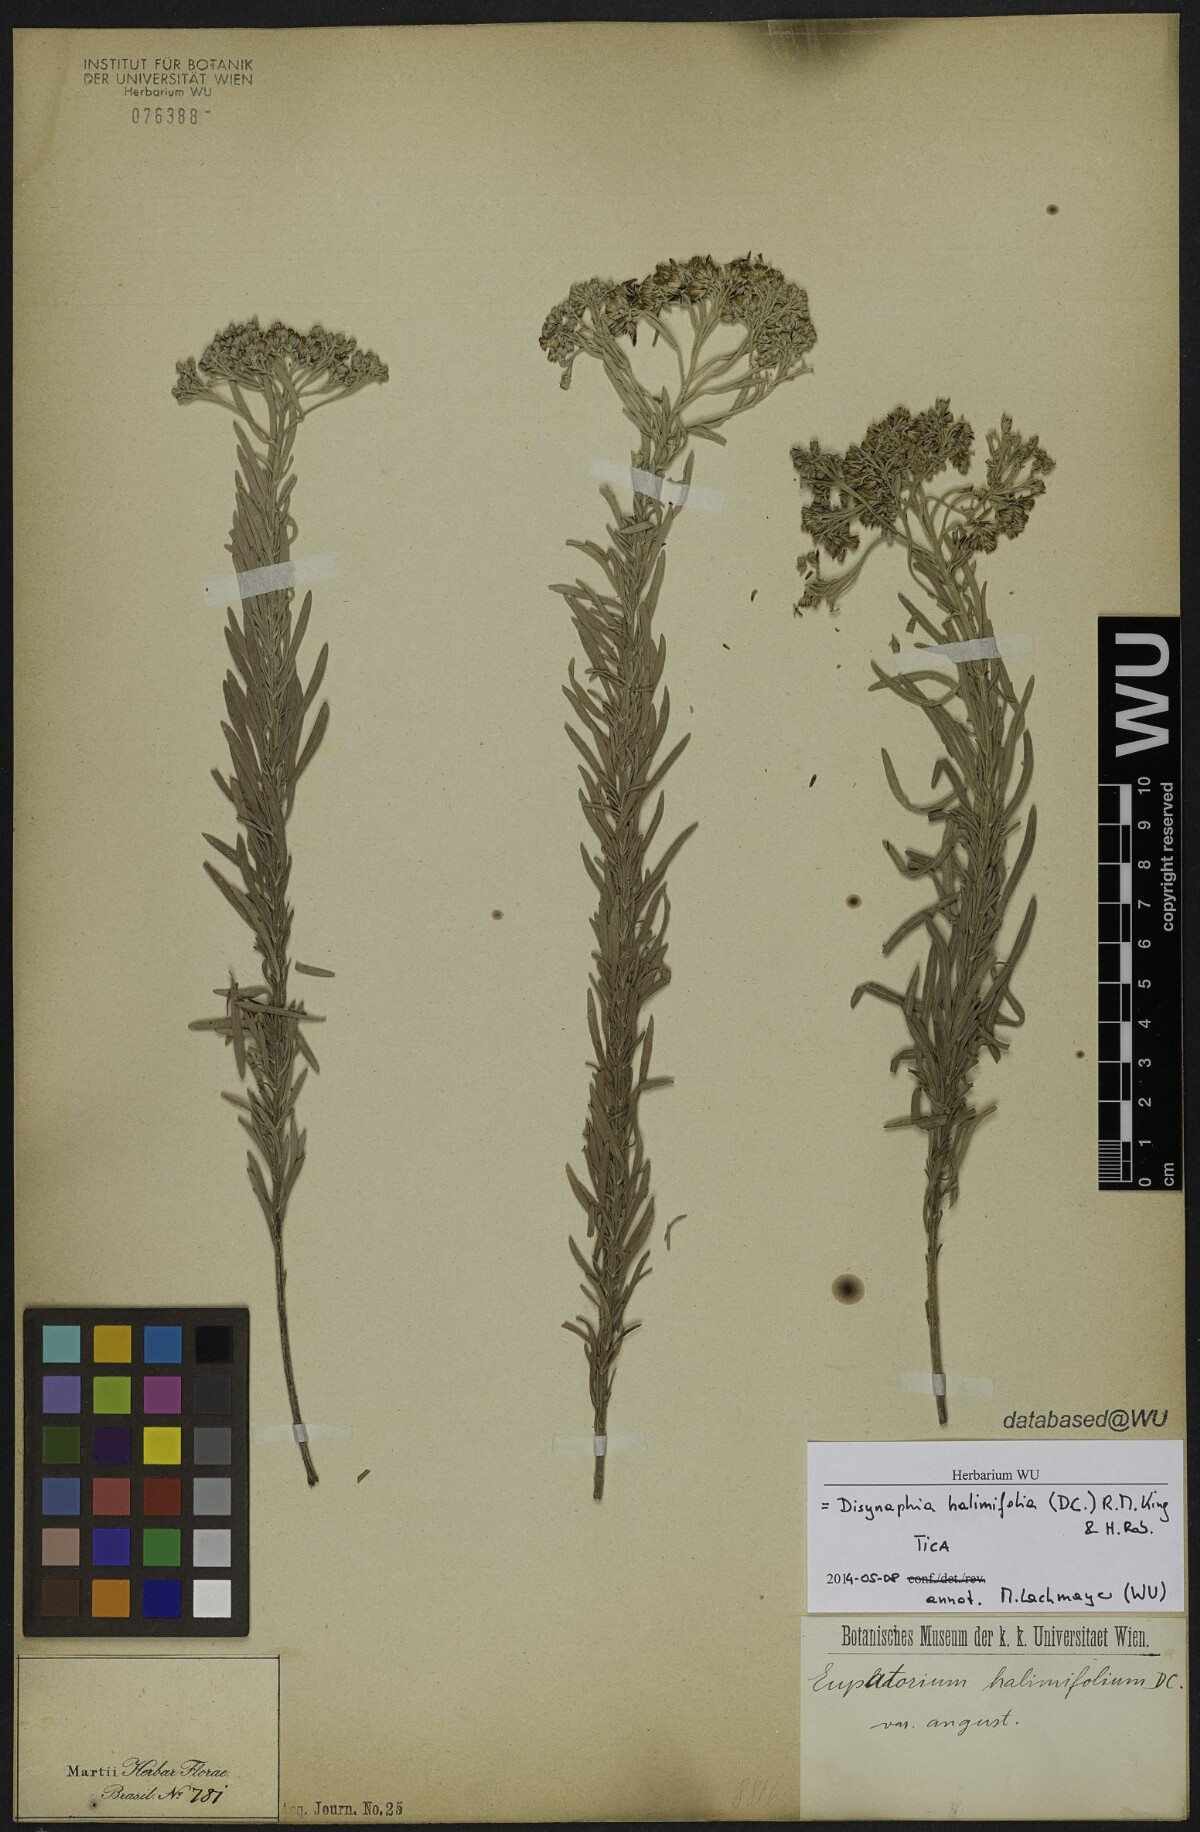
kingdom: Plantae
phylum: Tracheophyta
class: Magnoliopsida
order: Asterales
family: Asteraceae
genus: Disynaphia
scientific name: Disynaphia halimifolia
